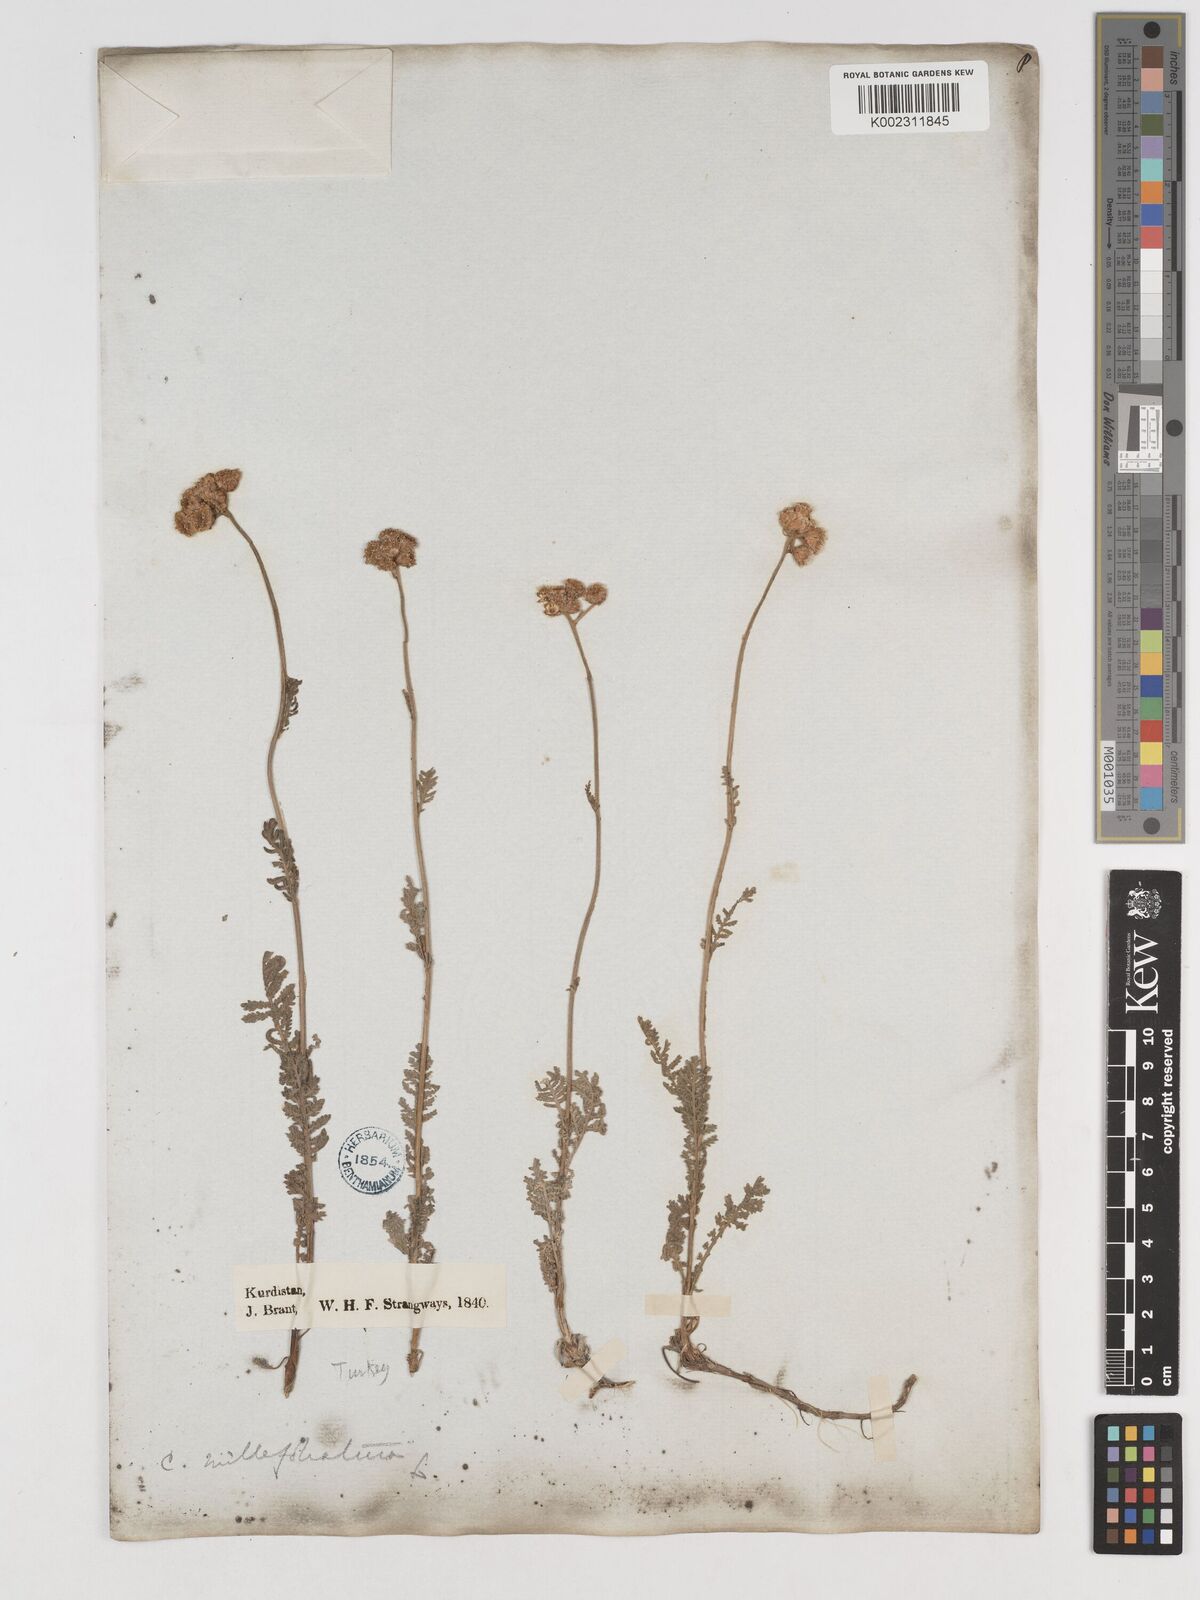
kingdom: Plantae
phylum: Tracheophyta
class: Magnoliopsida
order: Asterales
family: Asteraceae
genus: Tanacetum
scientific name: Tanacetum aureum
